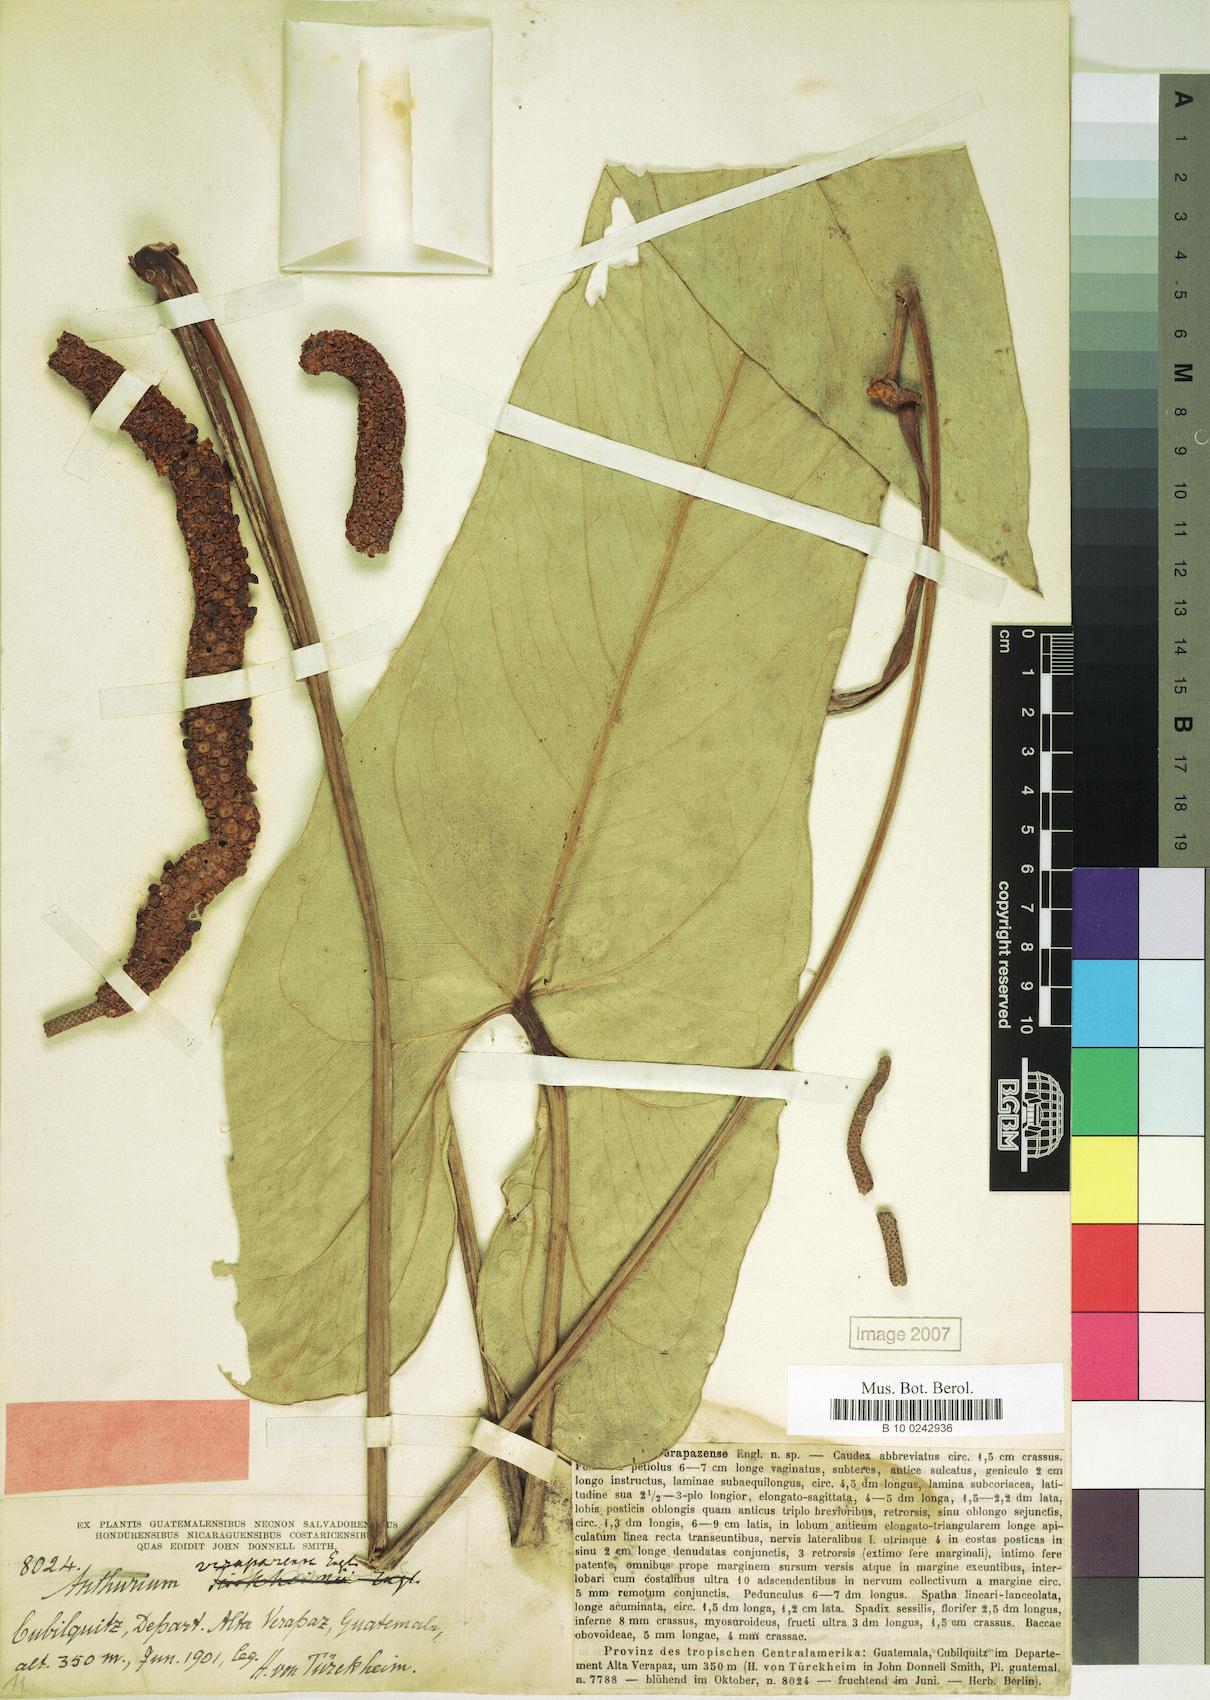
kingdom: Plantae
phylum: Tracheophyta
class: Liliopsida
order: Alismatales
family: Araceae
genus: Anthurium
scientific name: Anthurium verapazense
